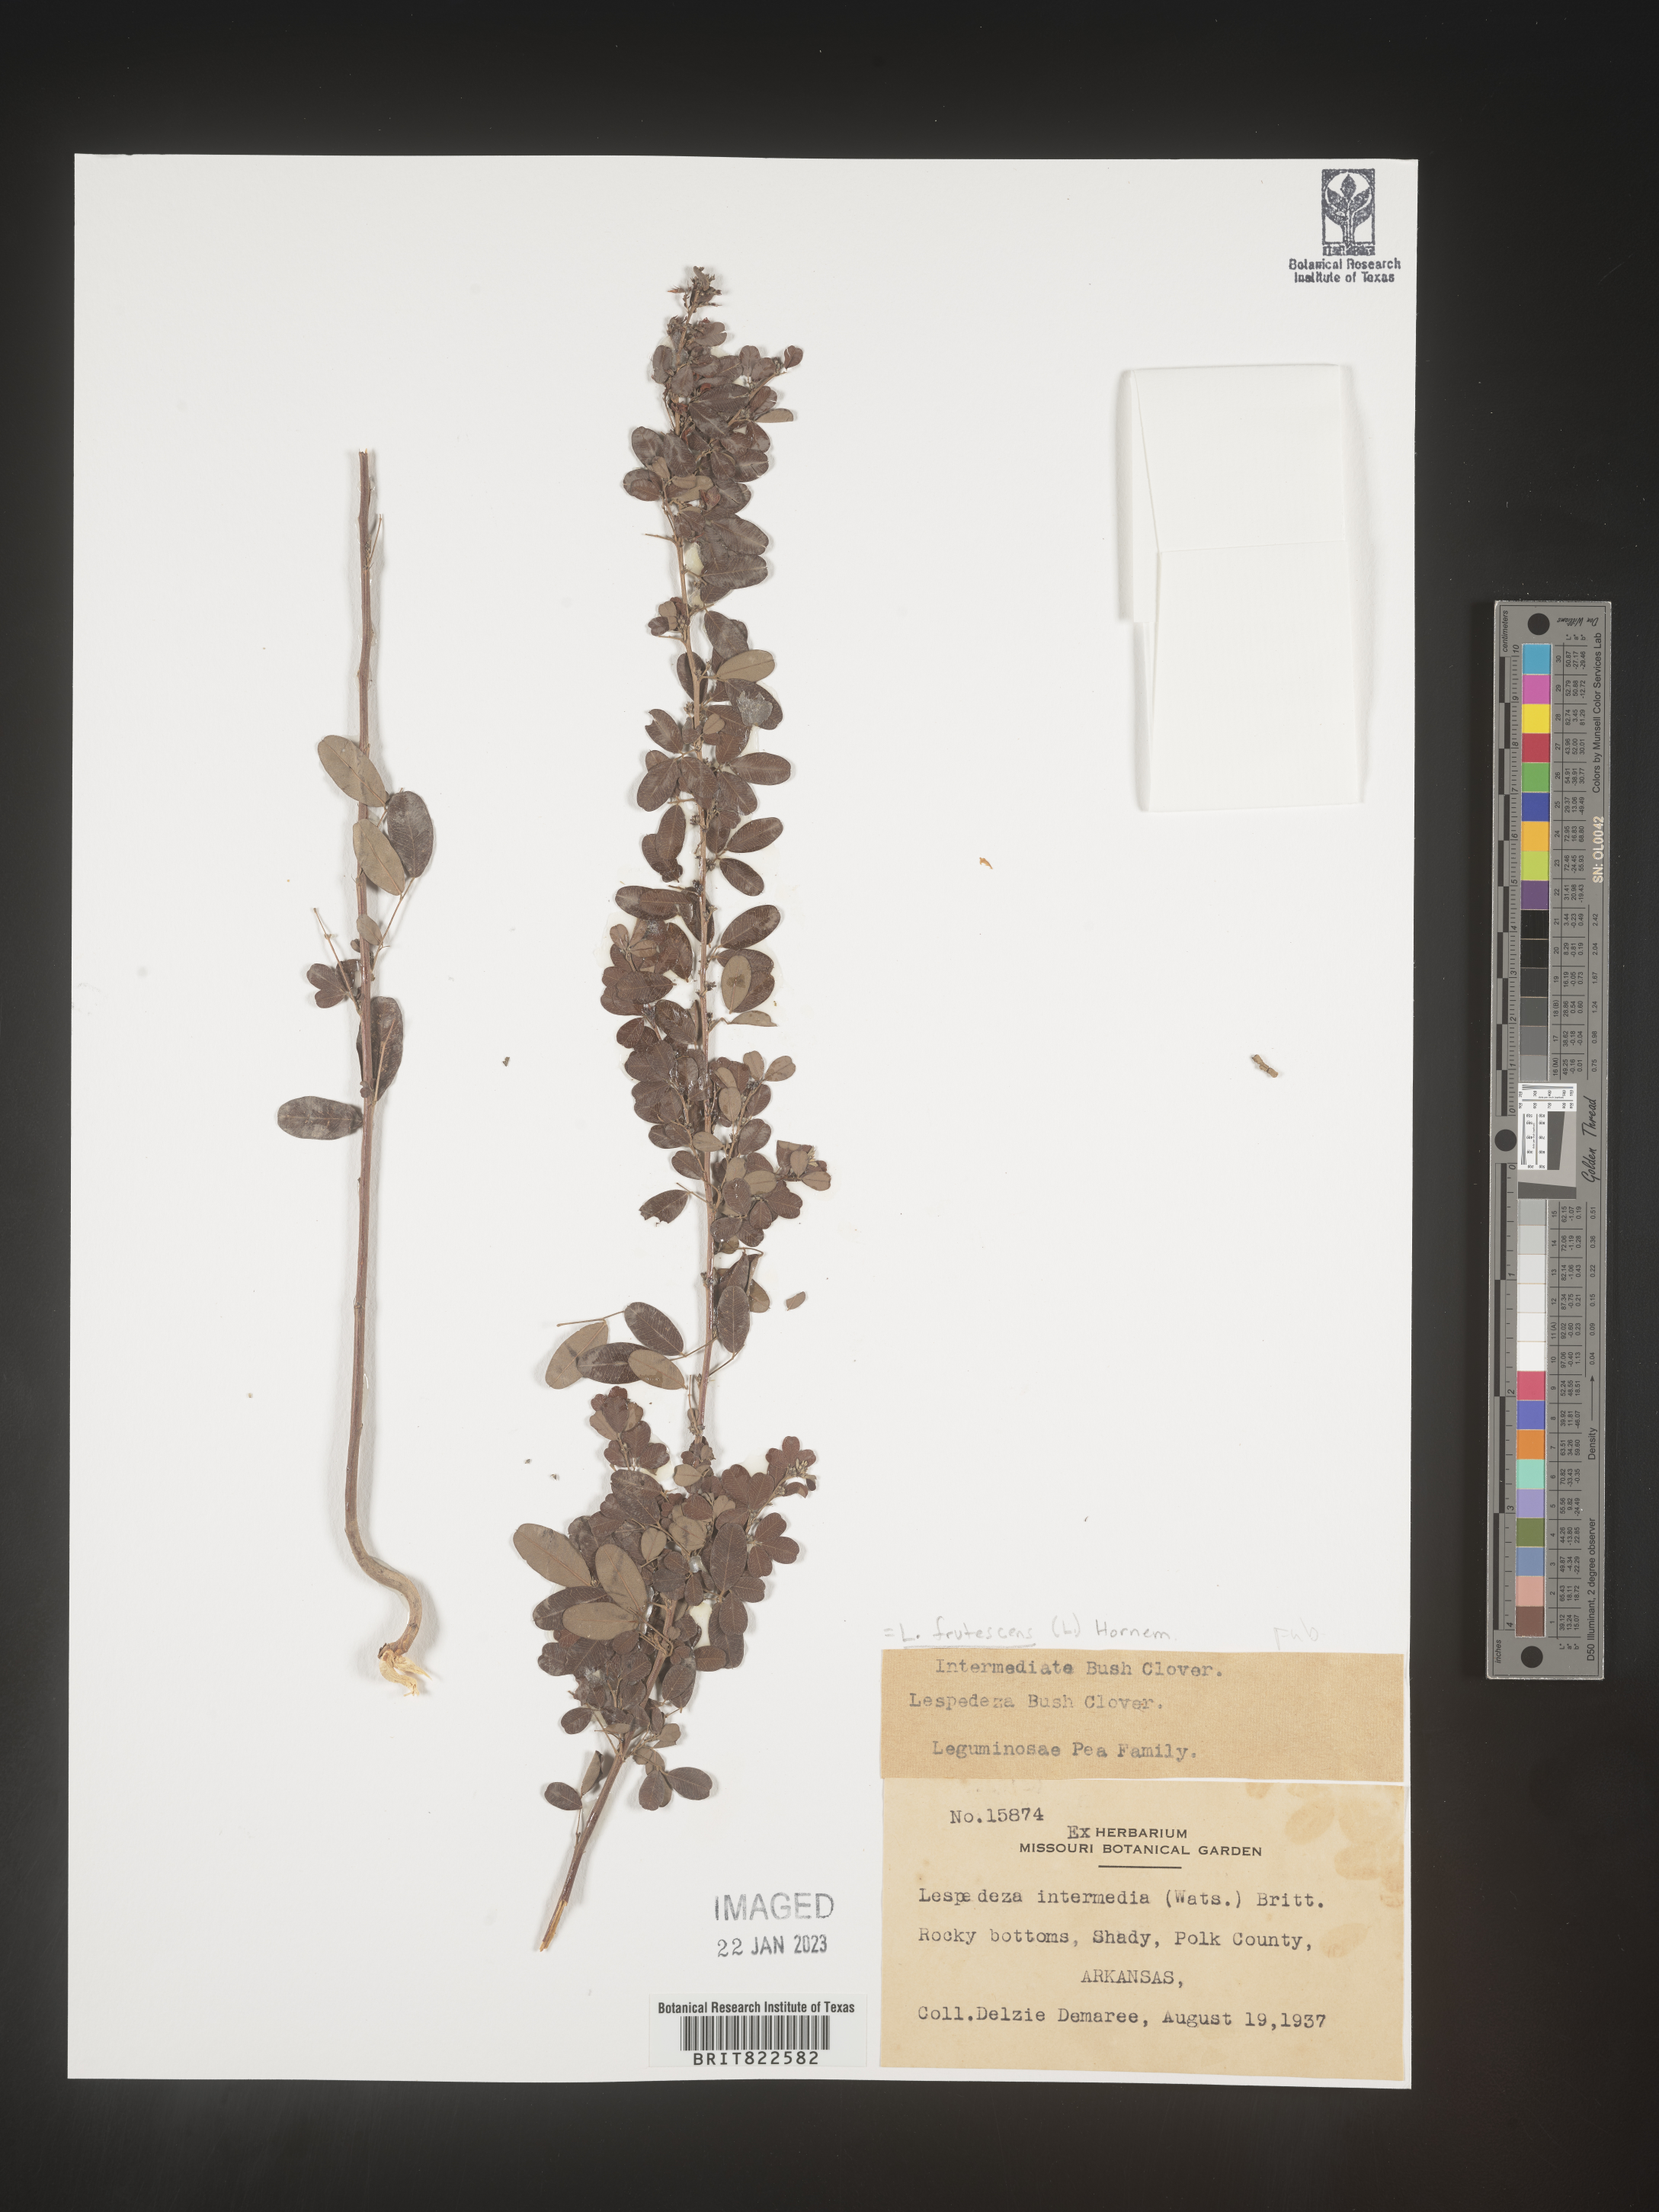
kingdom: Plantae
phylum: Tracheophyta
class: Magnoliopsida
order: Fabales
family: Fabaceae
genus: Lespedeza
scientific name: Lespedeza violacea
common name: Wand bush-clover
